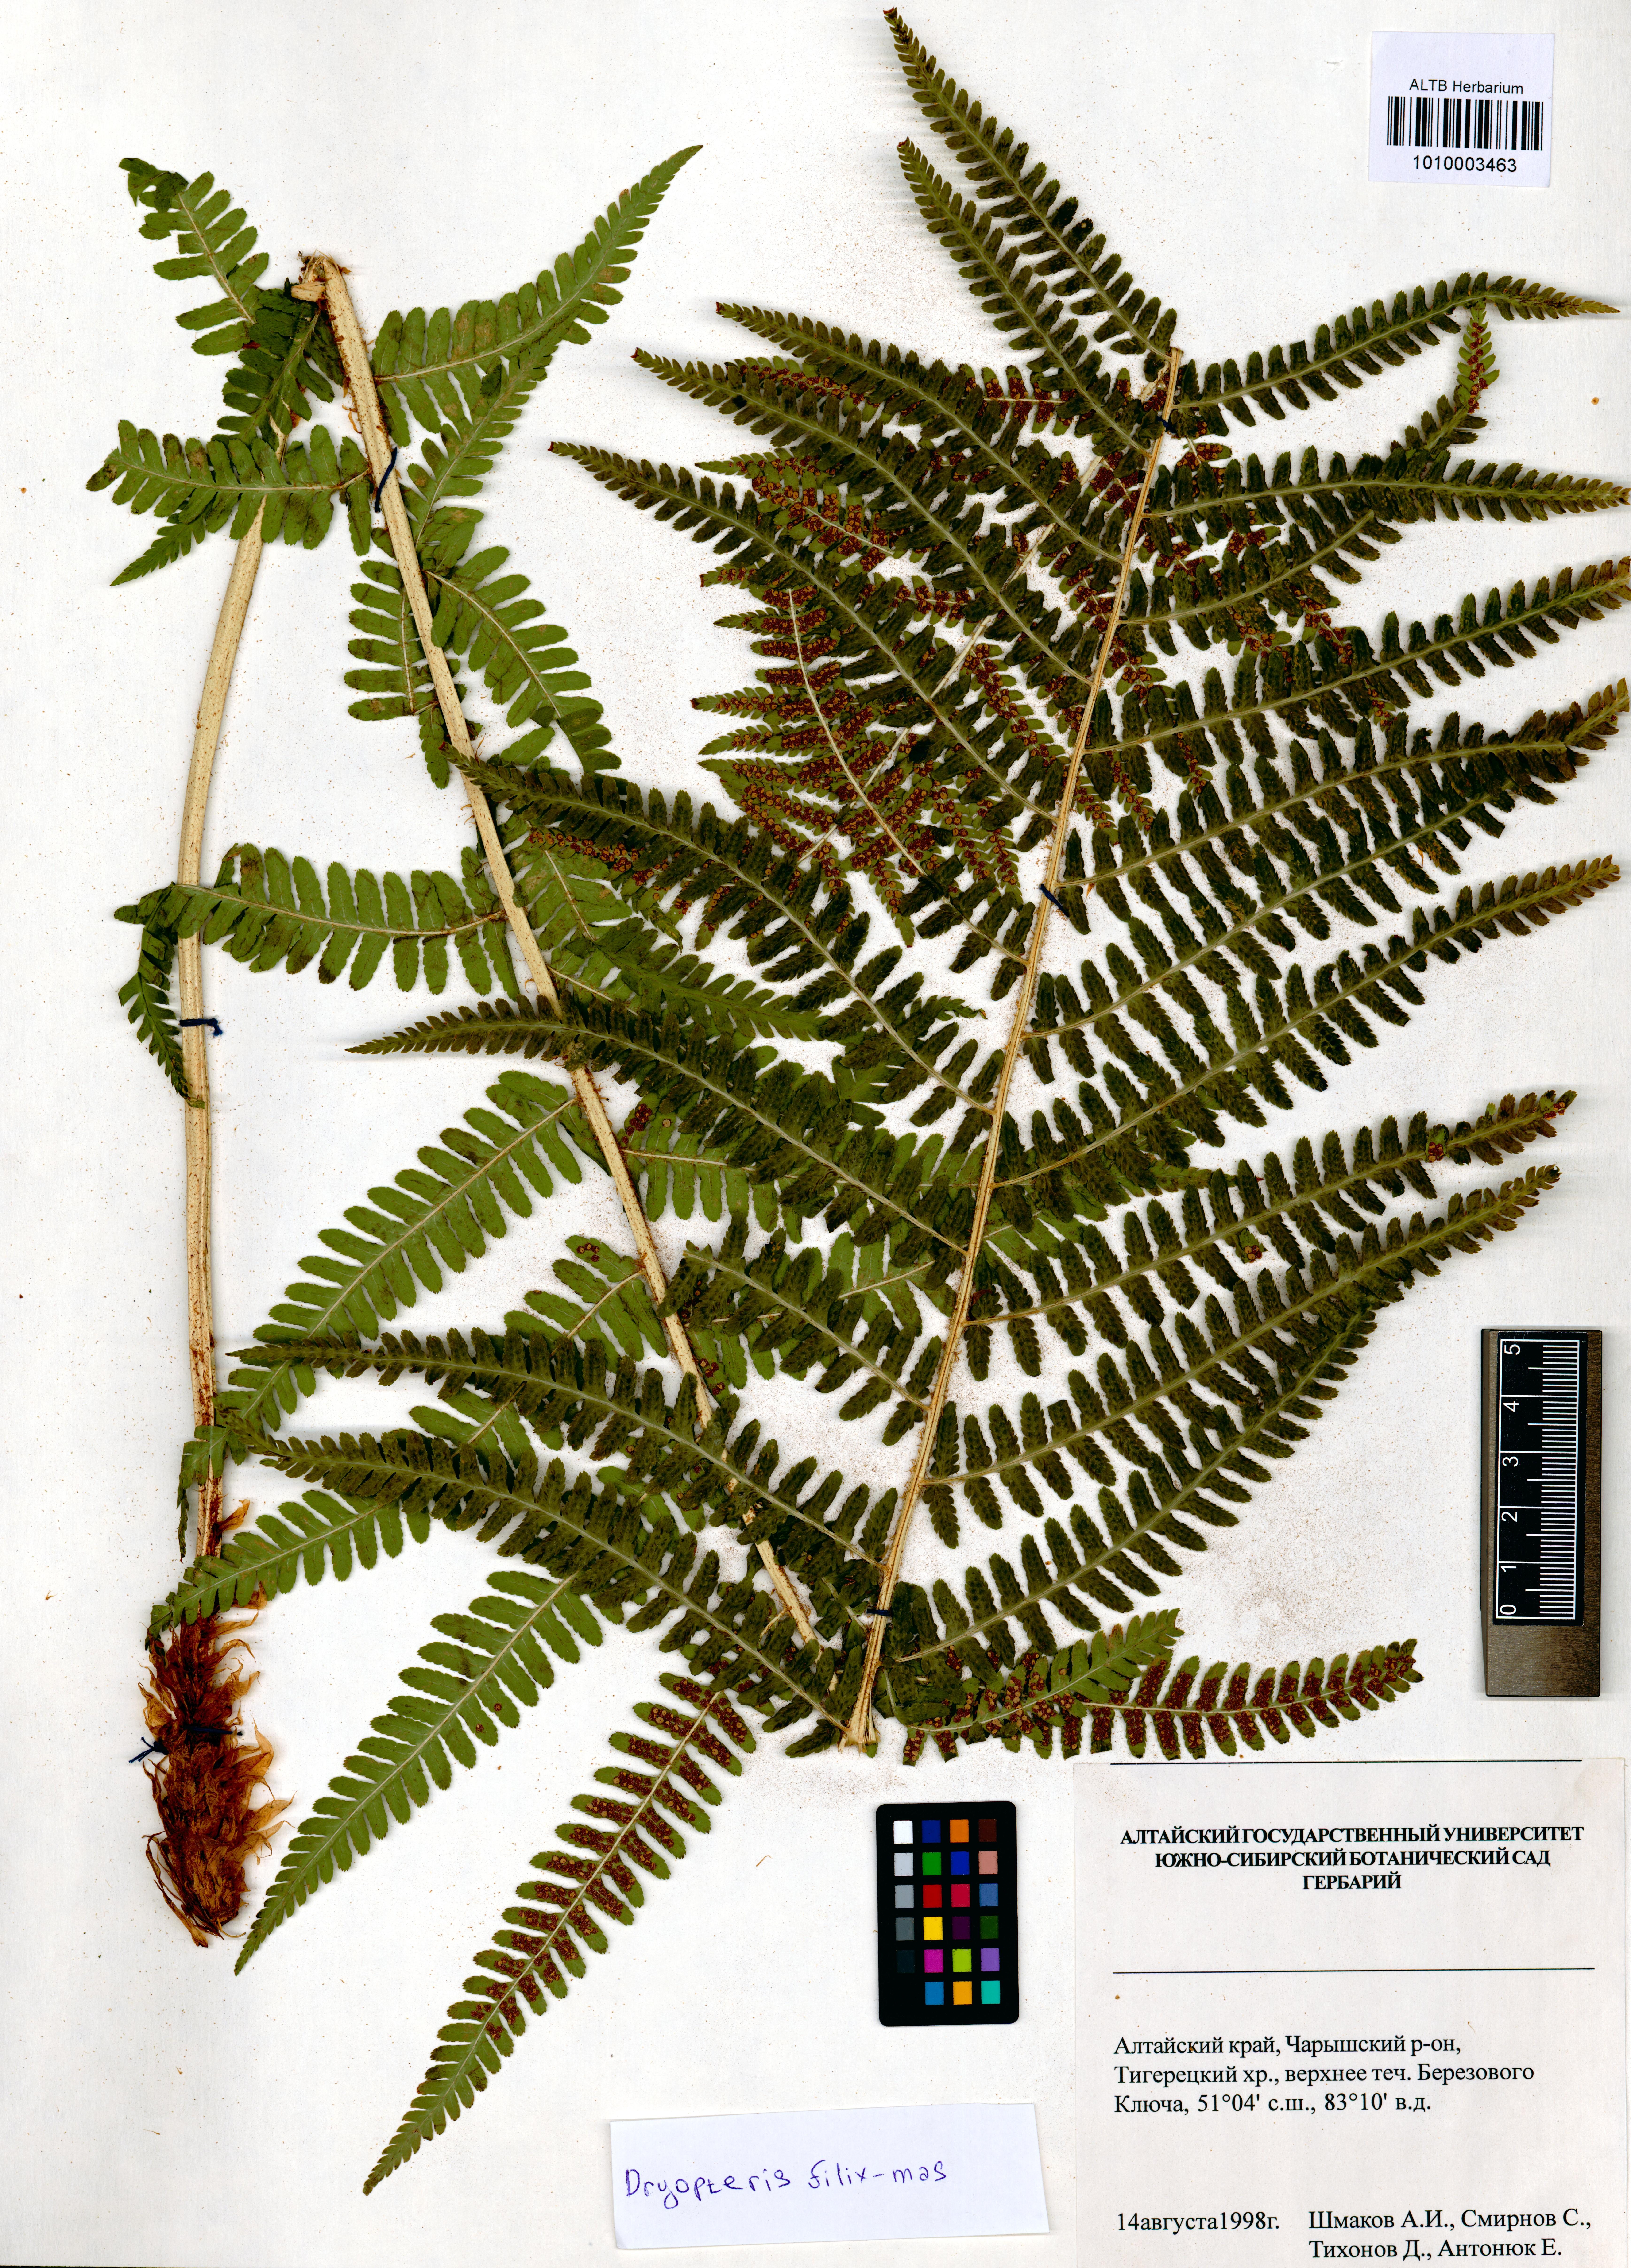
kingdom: Plantae
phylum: Tracheophyta
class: Polypodiopsida
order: Polypodiales
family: Dryopteridaceae
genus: Dryopteris
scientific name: Dryopteris filix-mas
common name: Male fern
